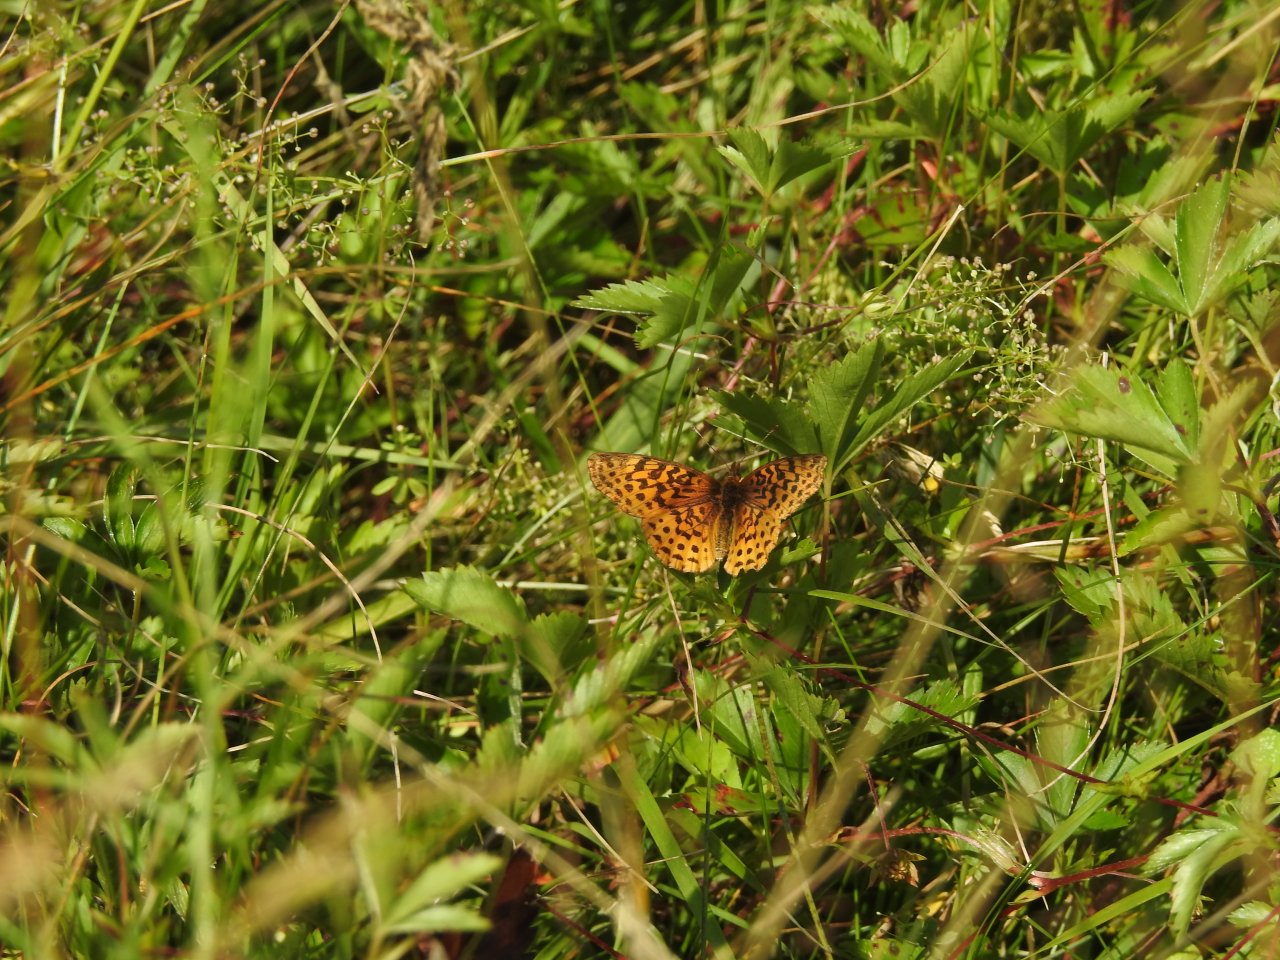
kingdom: Animalia
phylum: Arthropoda
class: Insecta
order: Lepidoptera
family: Nymphalidae
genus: Clossiana
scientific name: Clossiana toddi
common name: Meadow Fritillary
